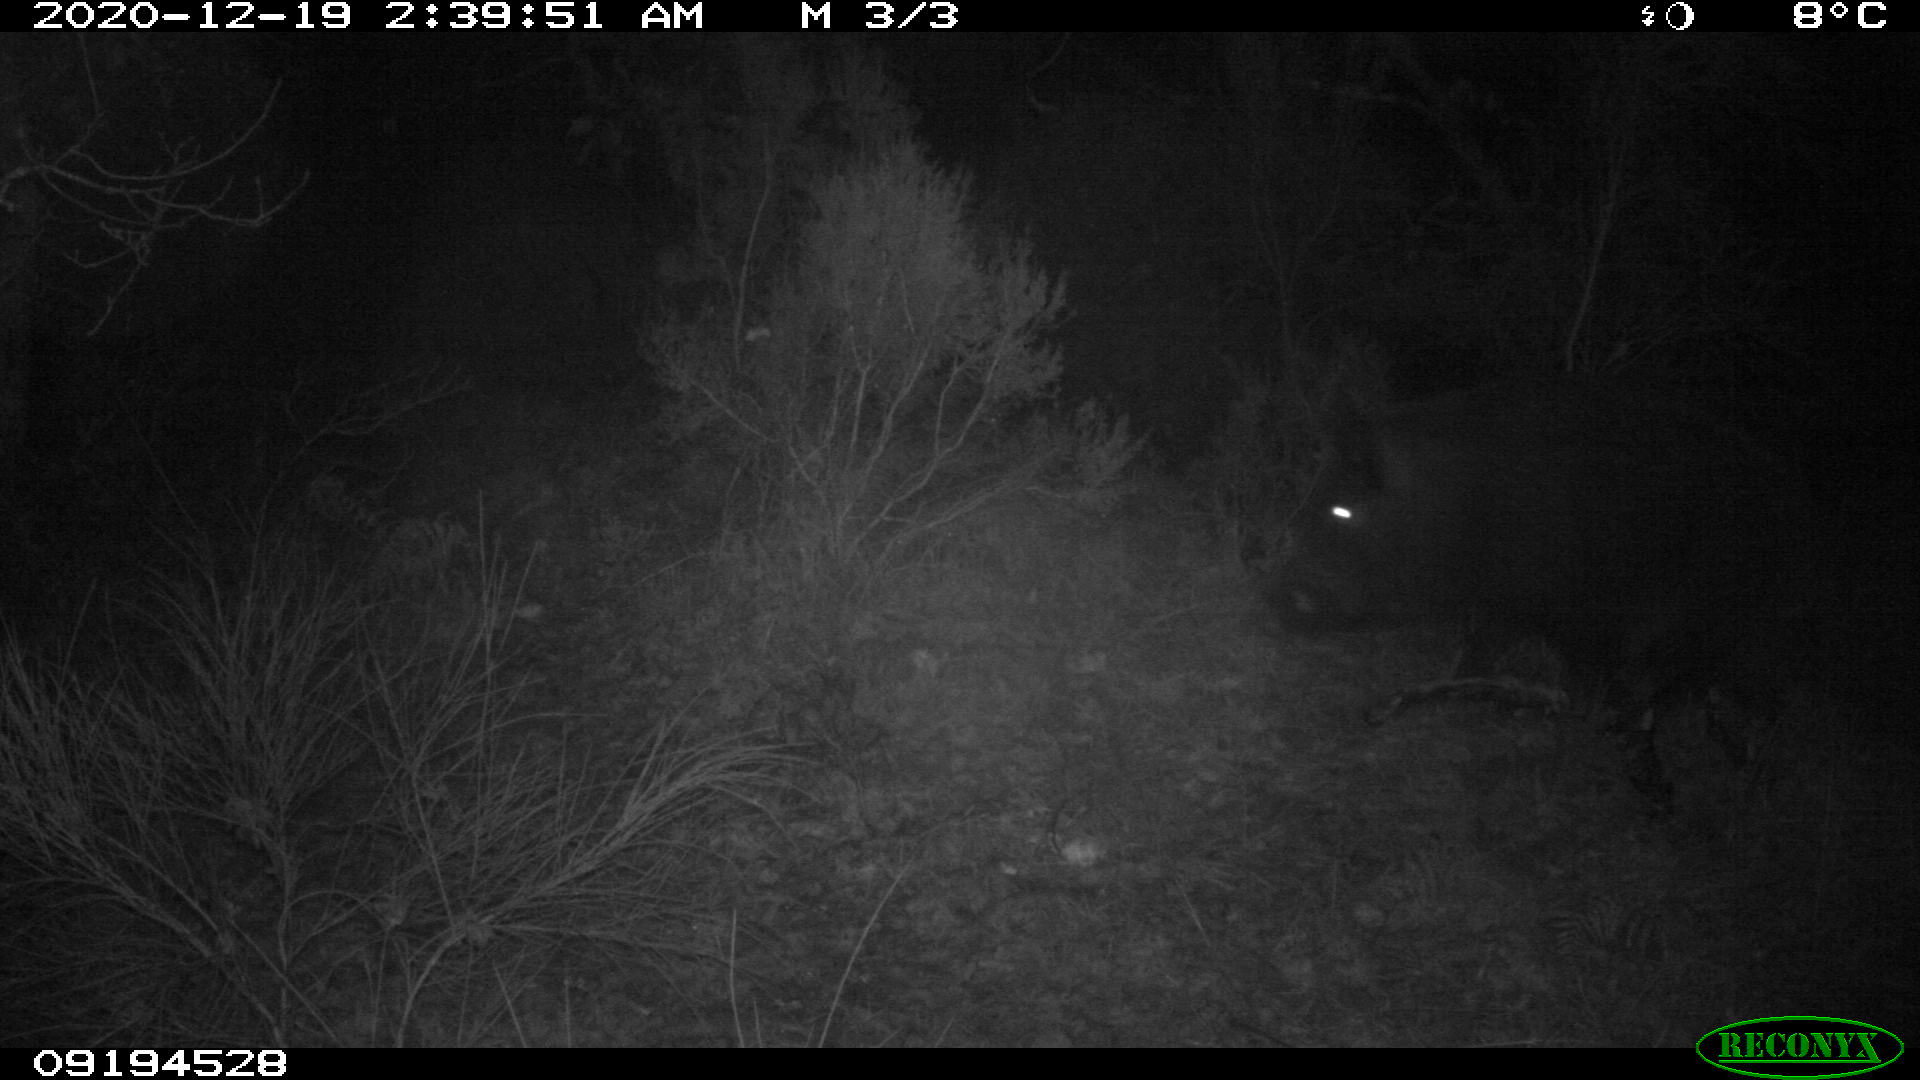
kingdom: Animalia
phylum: Chordata
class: Mammalia
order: Artiodactyla
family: Suidae
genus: Sus
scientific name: Sus scrofa
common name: Wild boar
